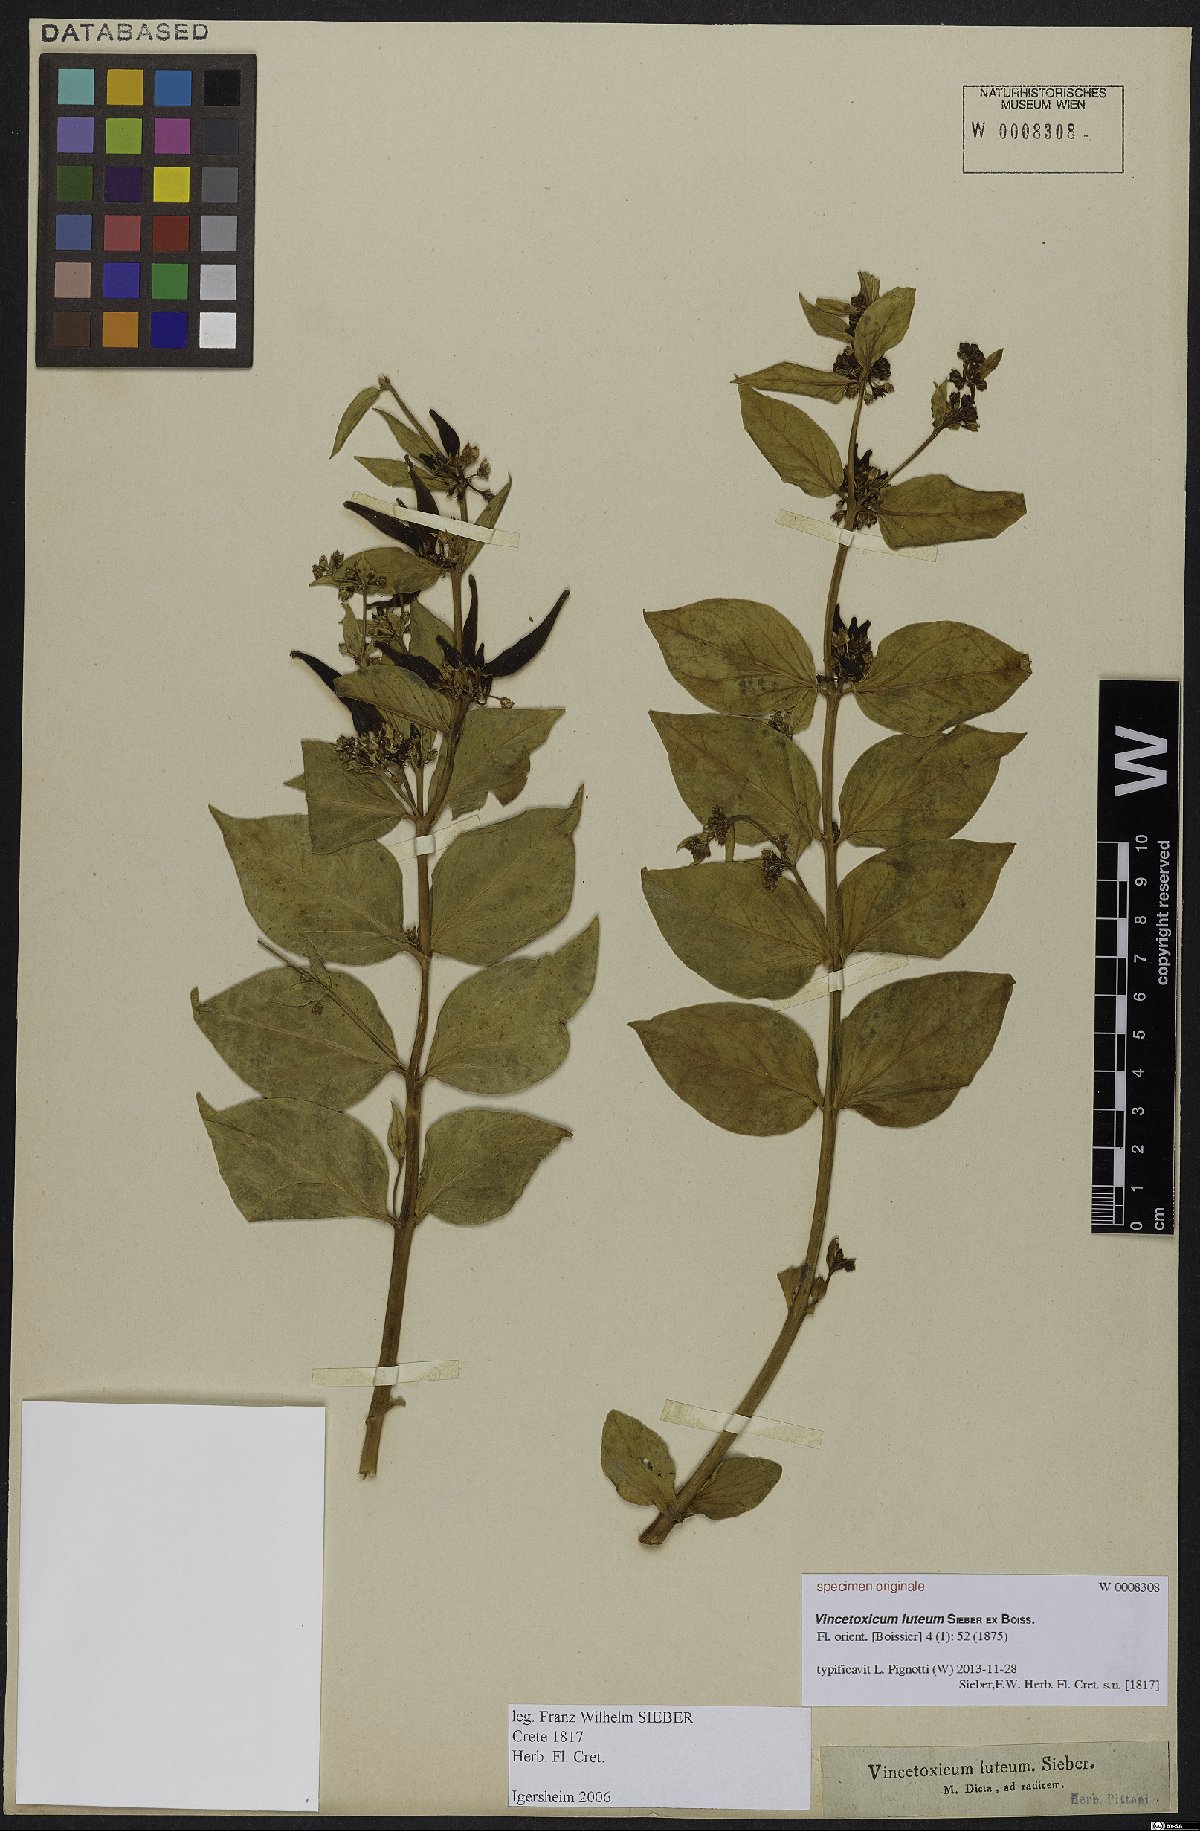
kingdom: Plantae
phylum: Tracheophyta
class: Magnoliopsida
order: Gentianales
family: Apocynaceae
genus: Vincetoxicum
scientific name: Vincetoxicum canescens
